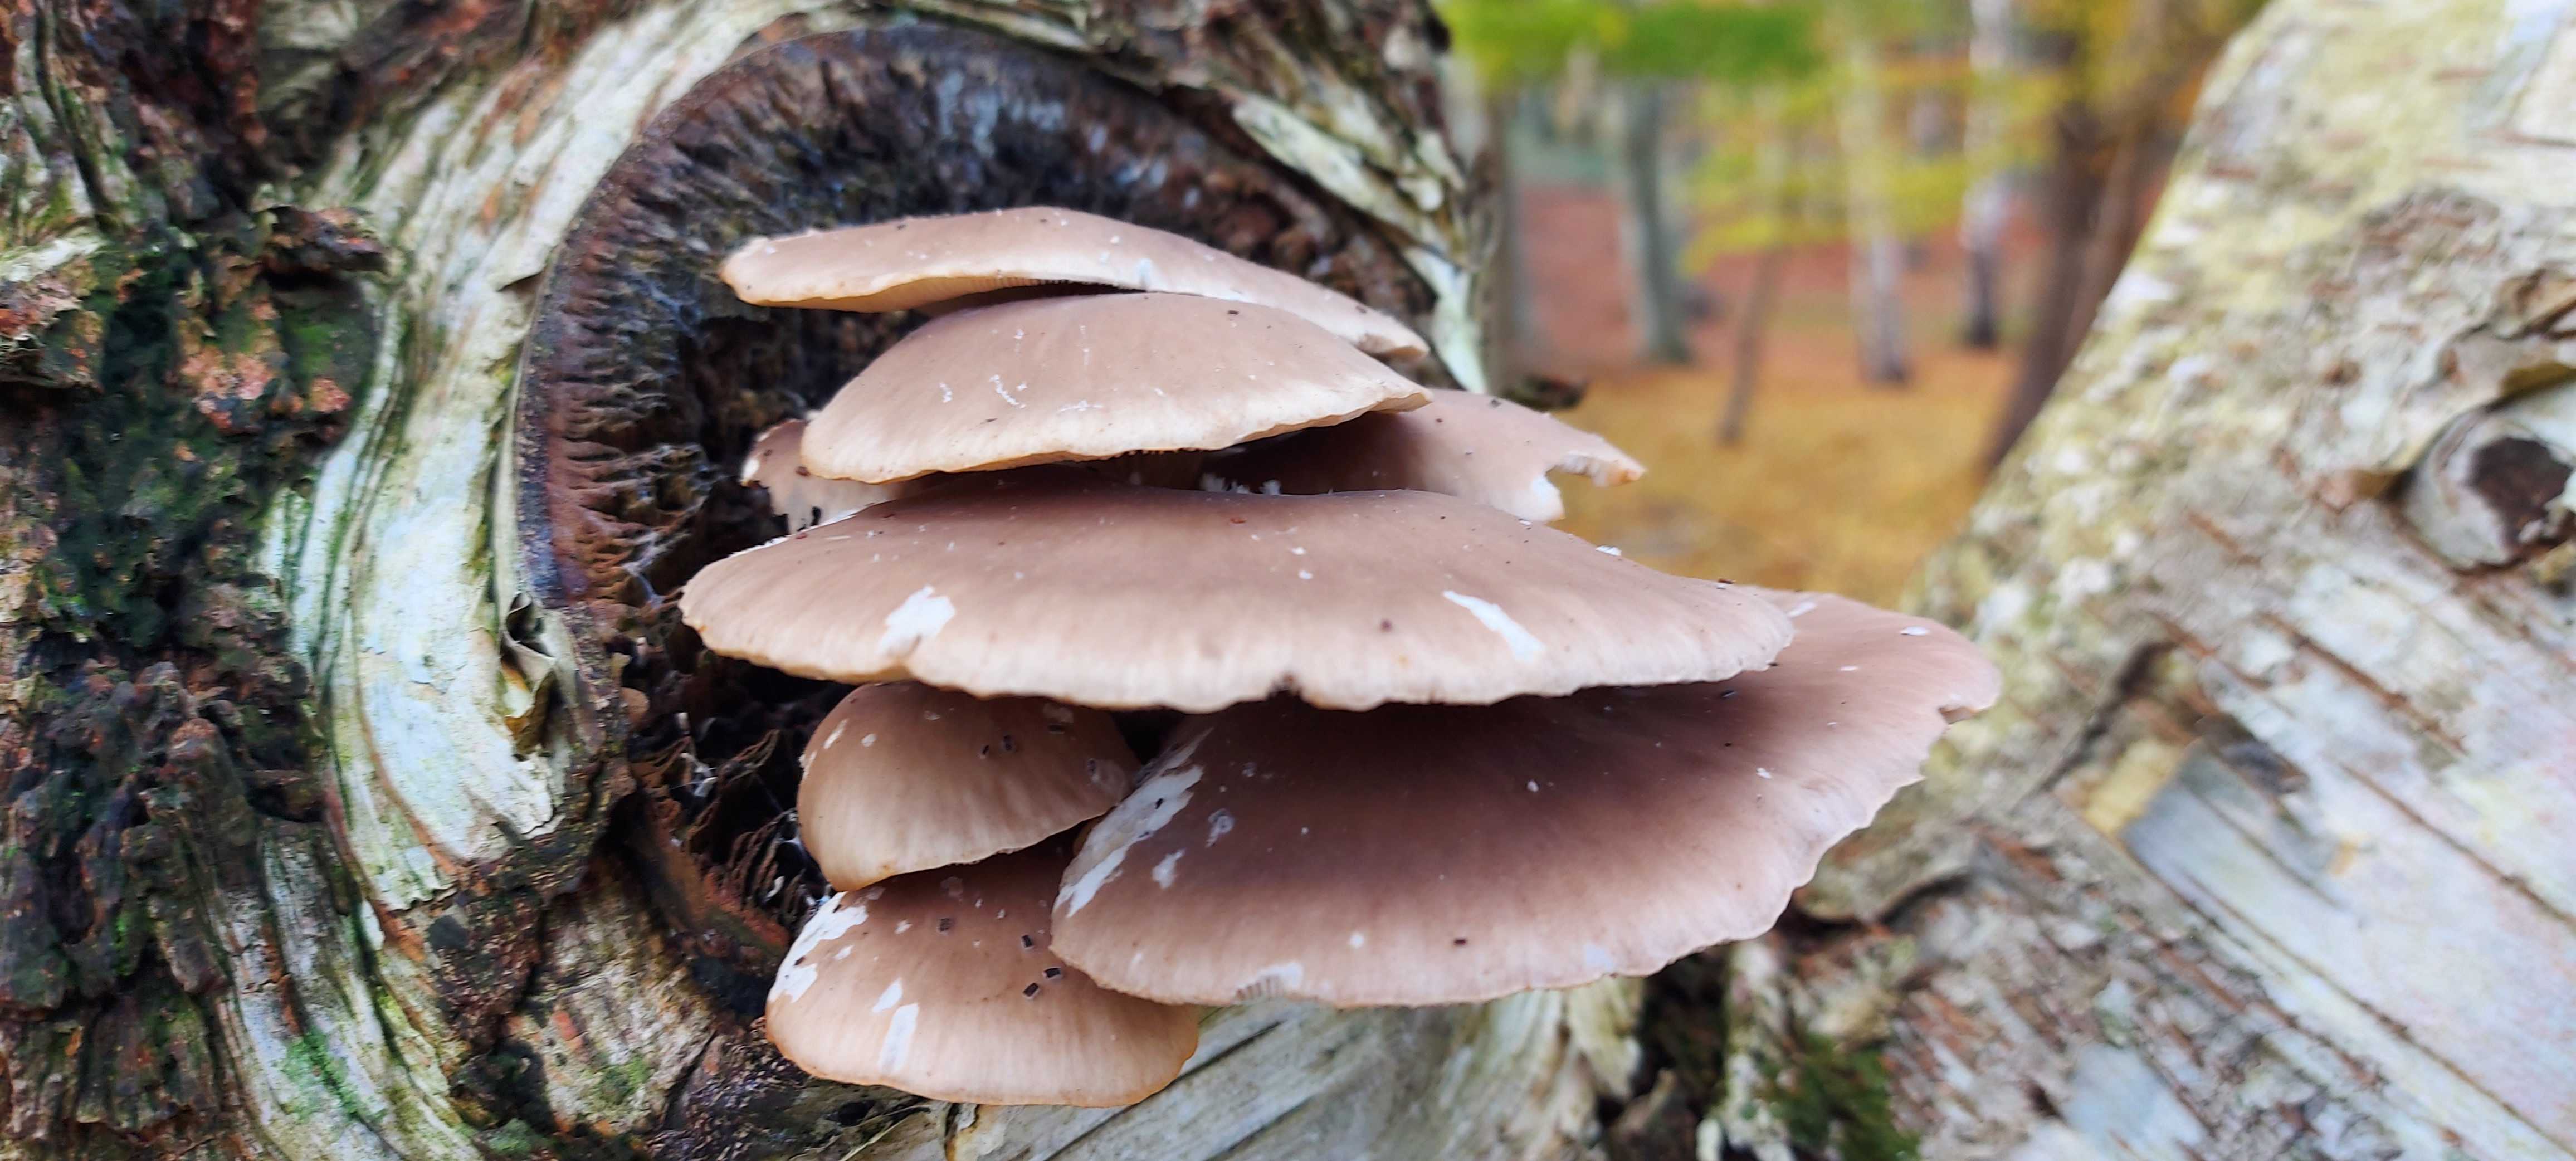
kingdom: Fungi
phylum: Basidiomycota
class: Agaricomycetes
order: Agaricales
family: Pleurotaceae
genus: Pleurotus
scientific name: Pleurotus ostreatus
